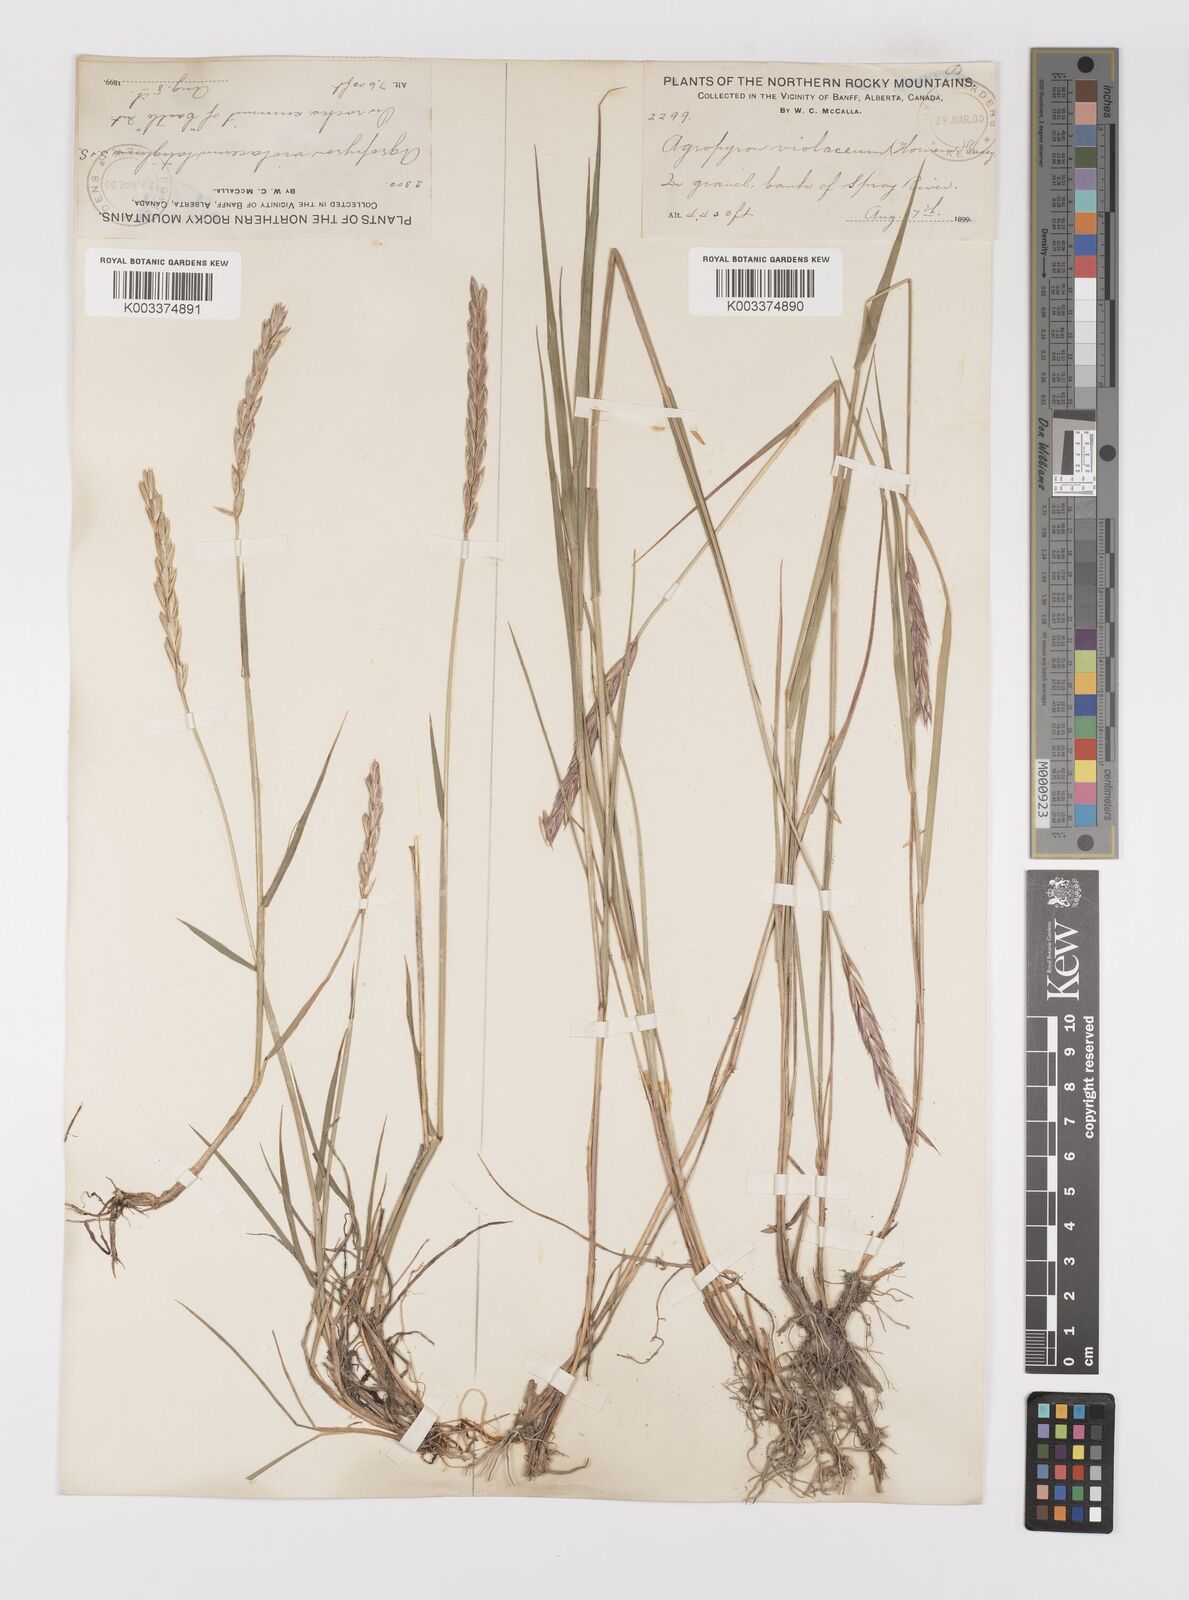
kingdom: Plantae
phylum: Tracheophyta
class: Liliopsida
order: Poales
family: Poaceae
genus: Elymus
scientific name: Elymus violaceus
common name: Arctic wheatgrass
